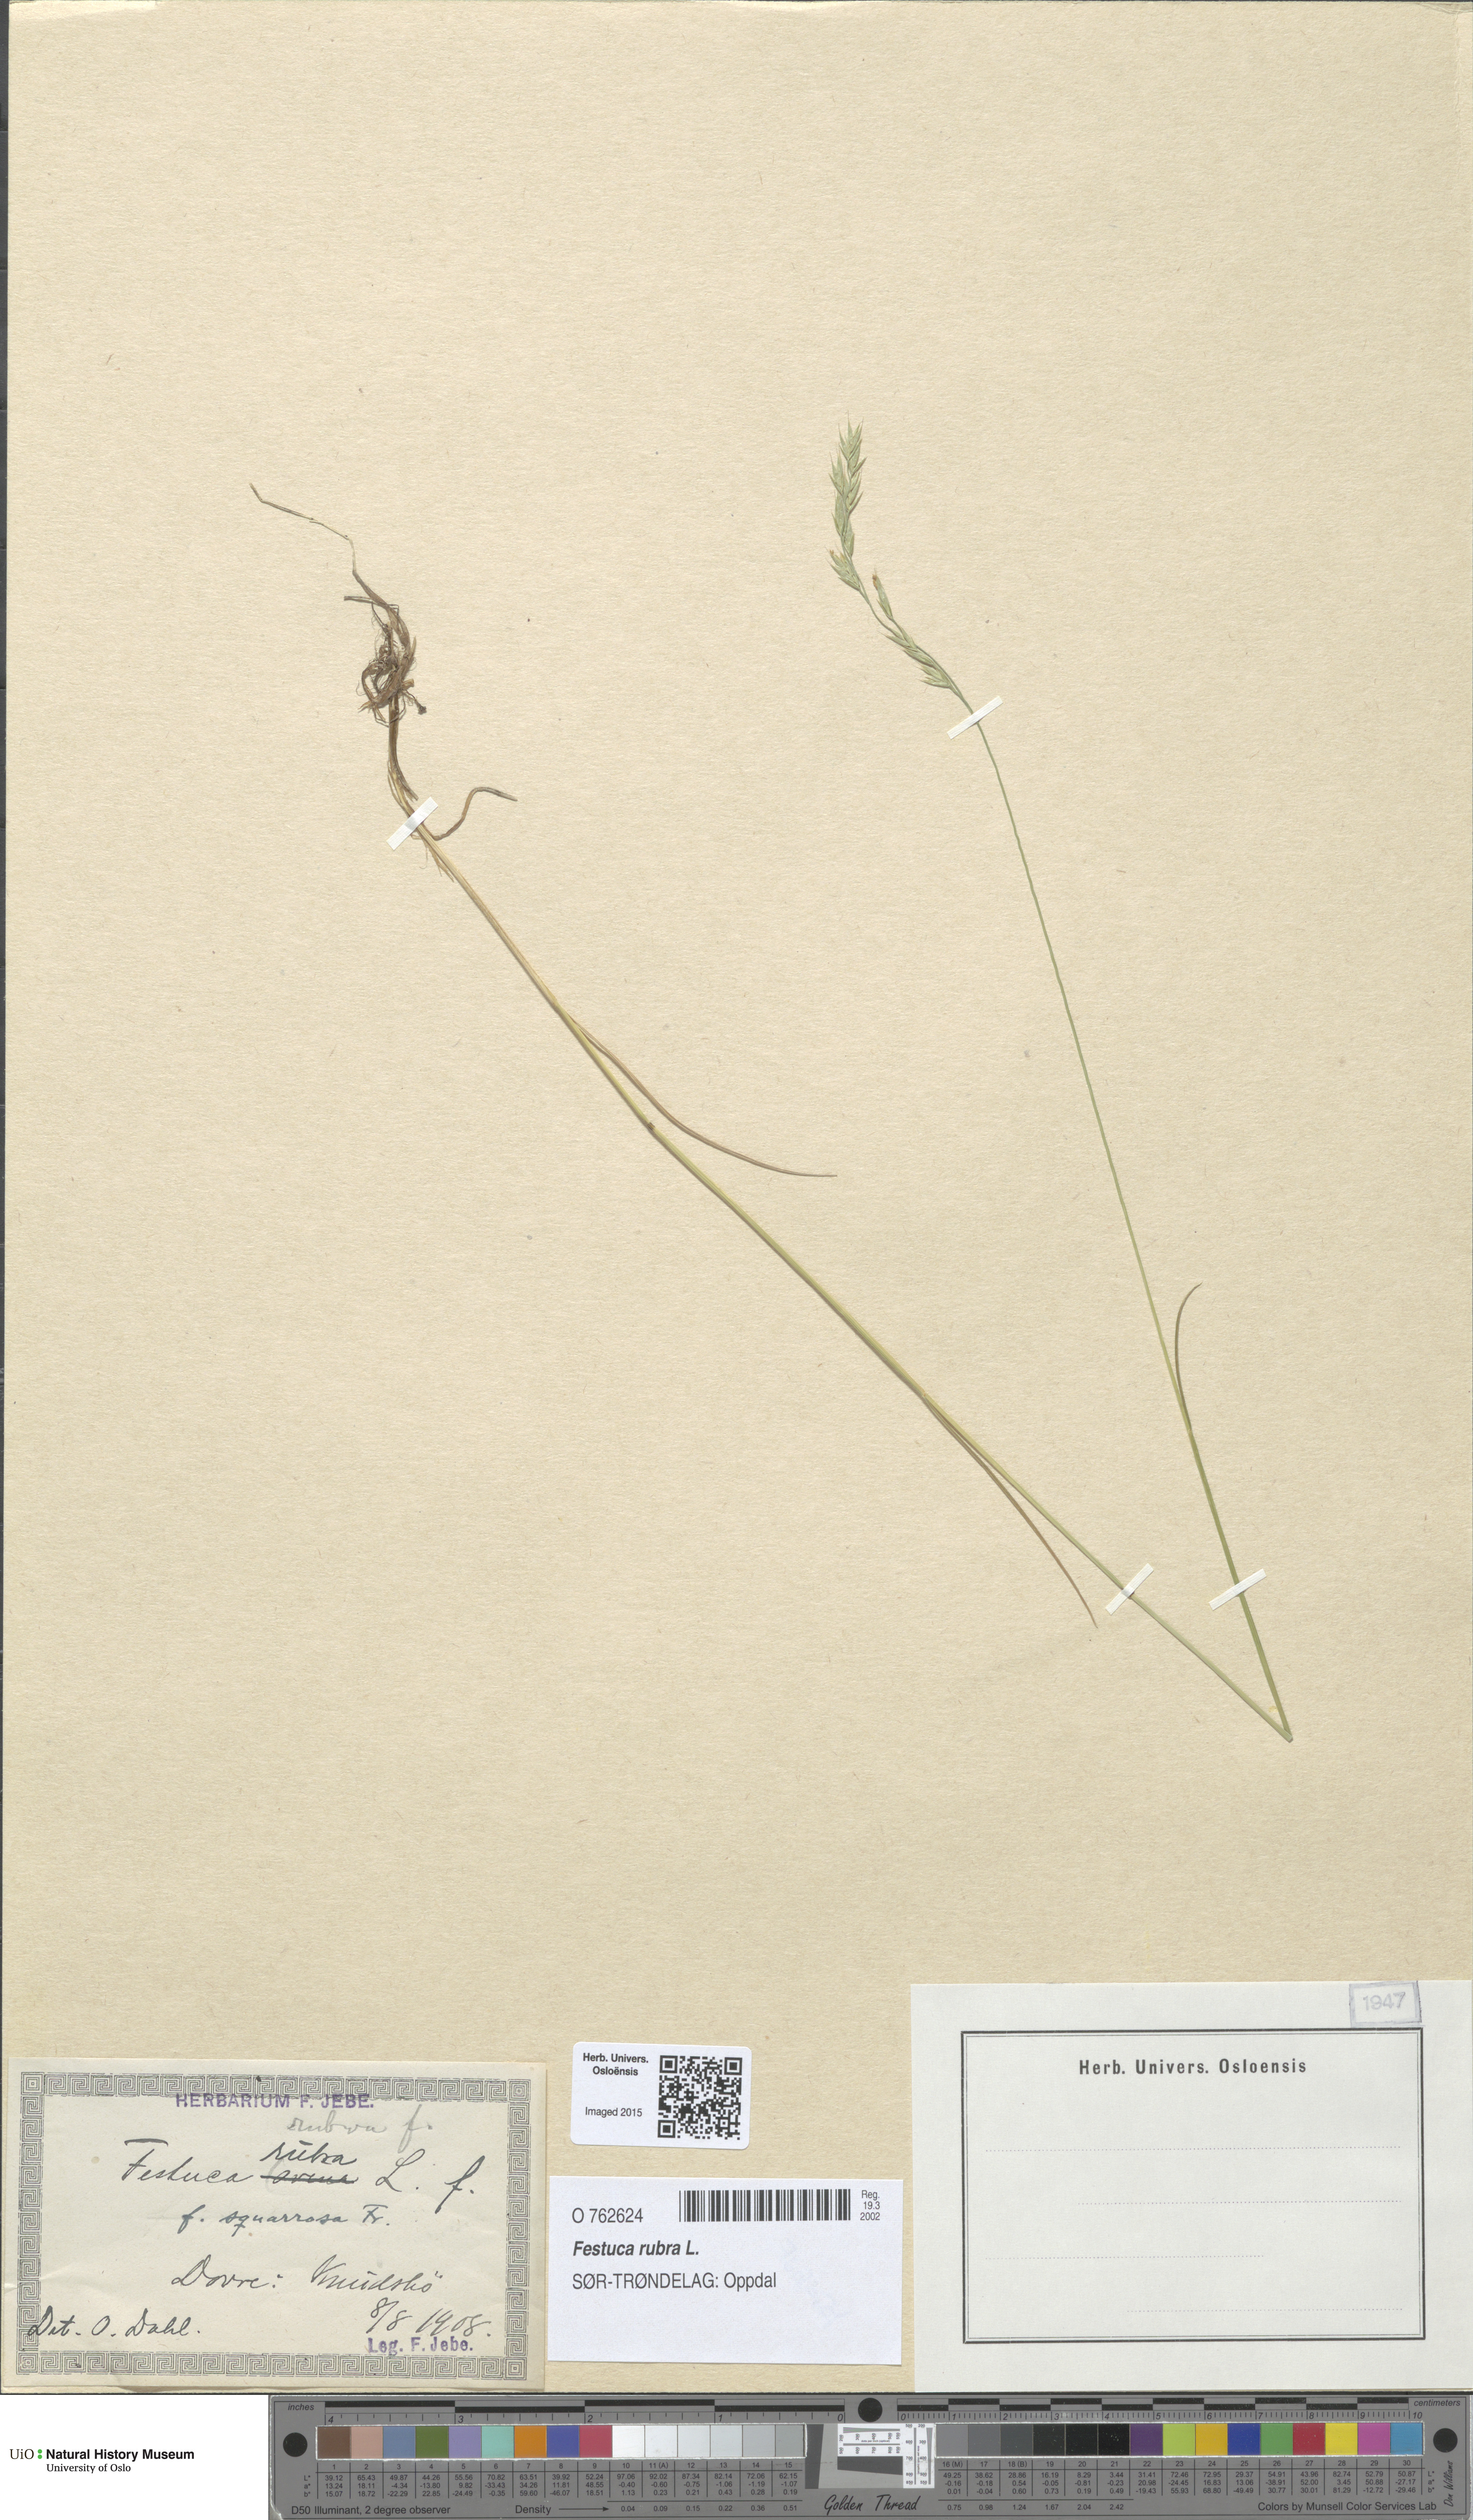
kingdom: Plantae
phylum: Tracheophyta
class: Liliopsida
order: Poales
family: Poaceae
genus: Festuca
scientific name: Festuca rubra
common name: Red fescue
